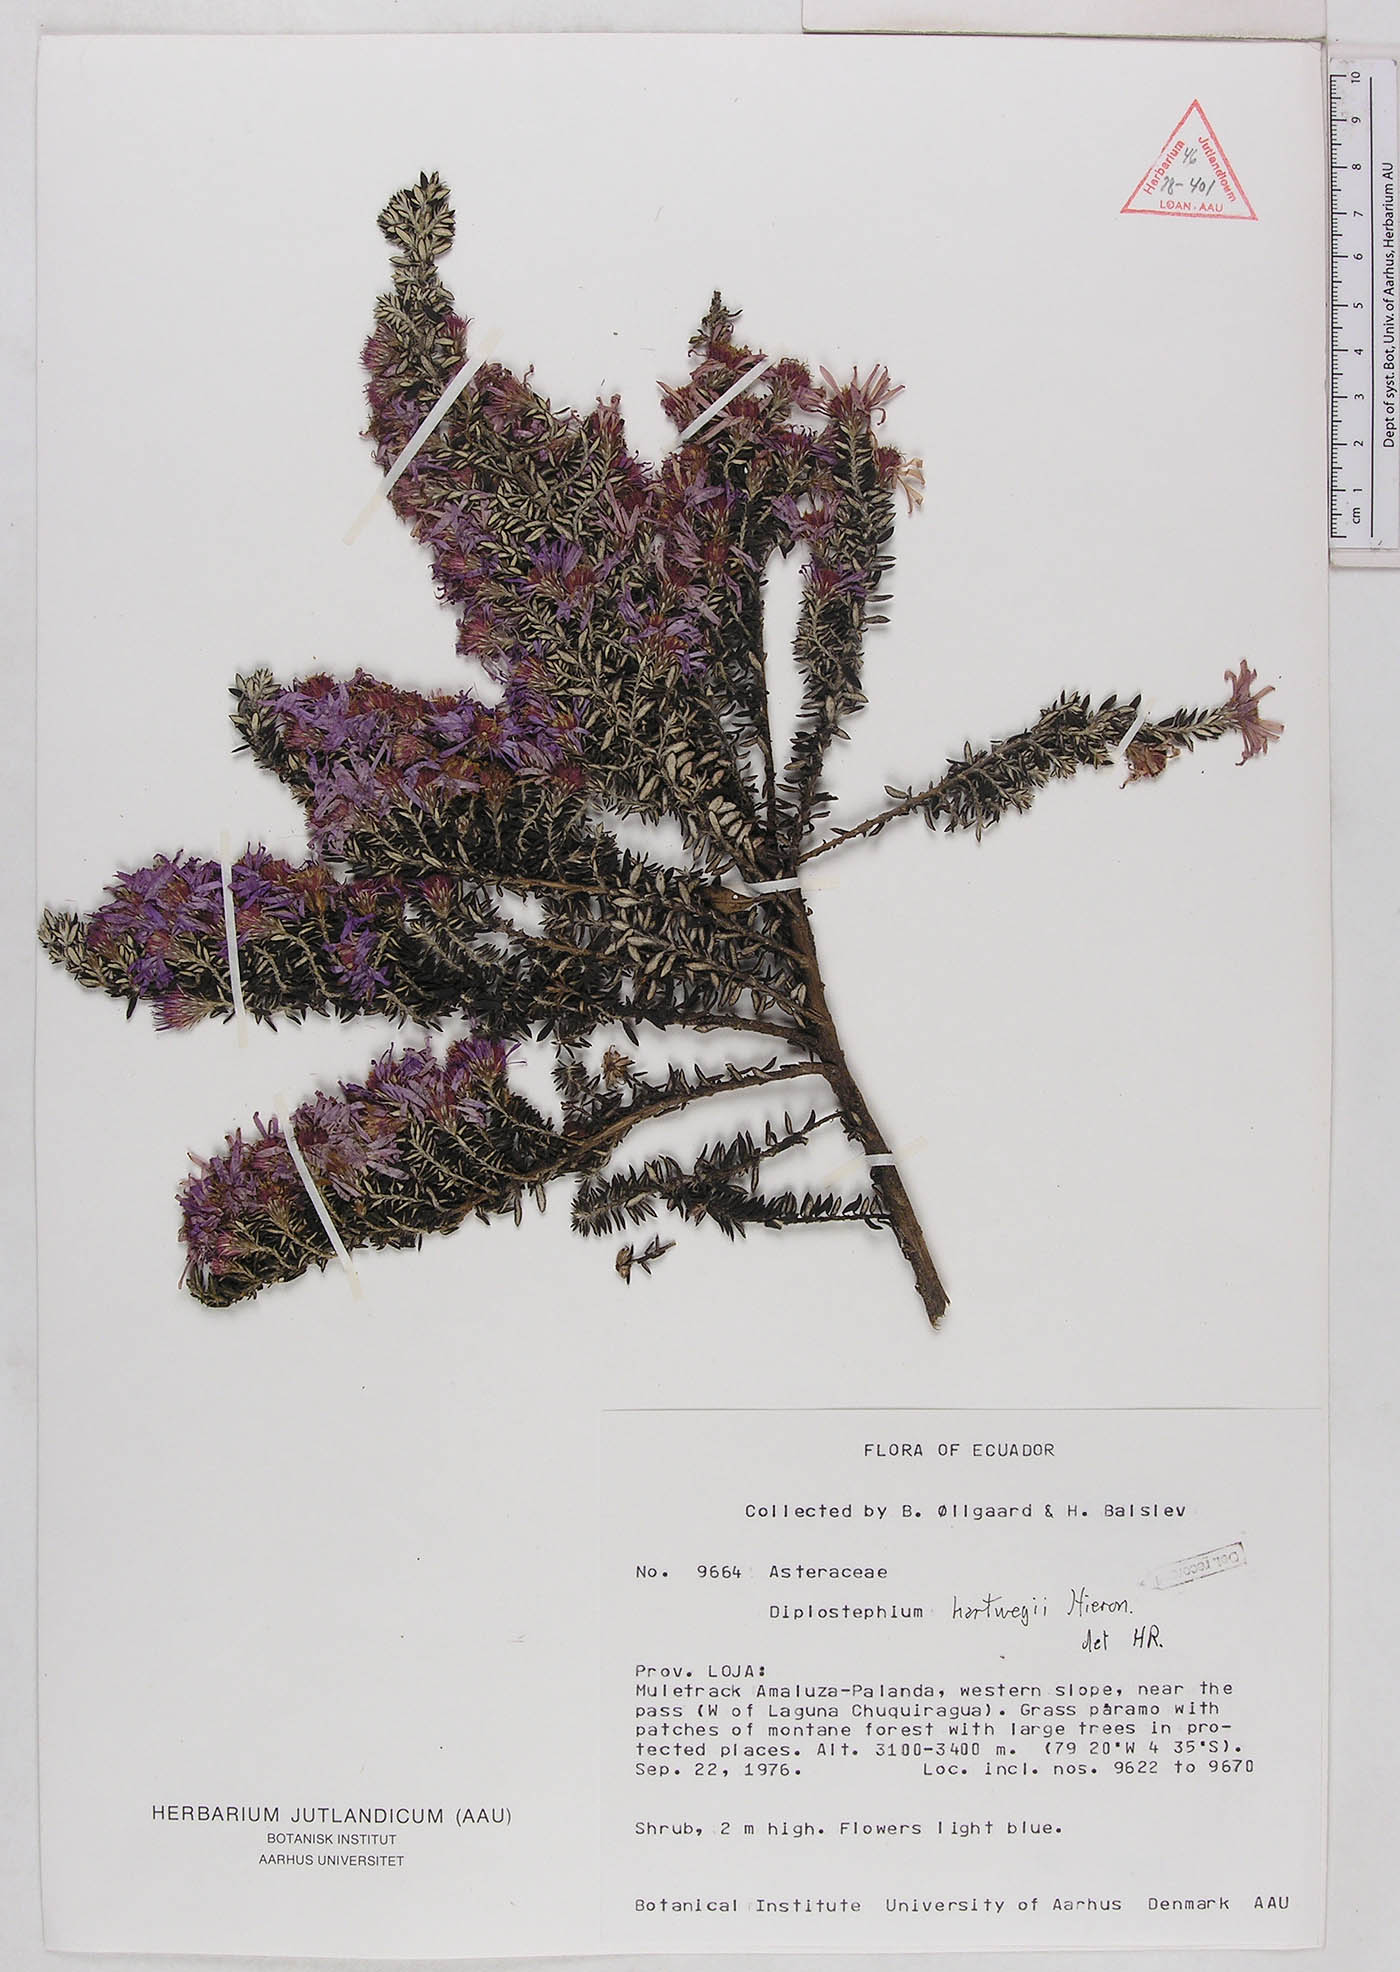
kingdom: Plantae
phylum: Tracheophyta
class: Magnoliopsida
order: Asterales
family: Asteraceae
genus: Diplostephium
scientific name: Diplostephium hartwegii
